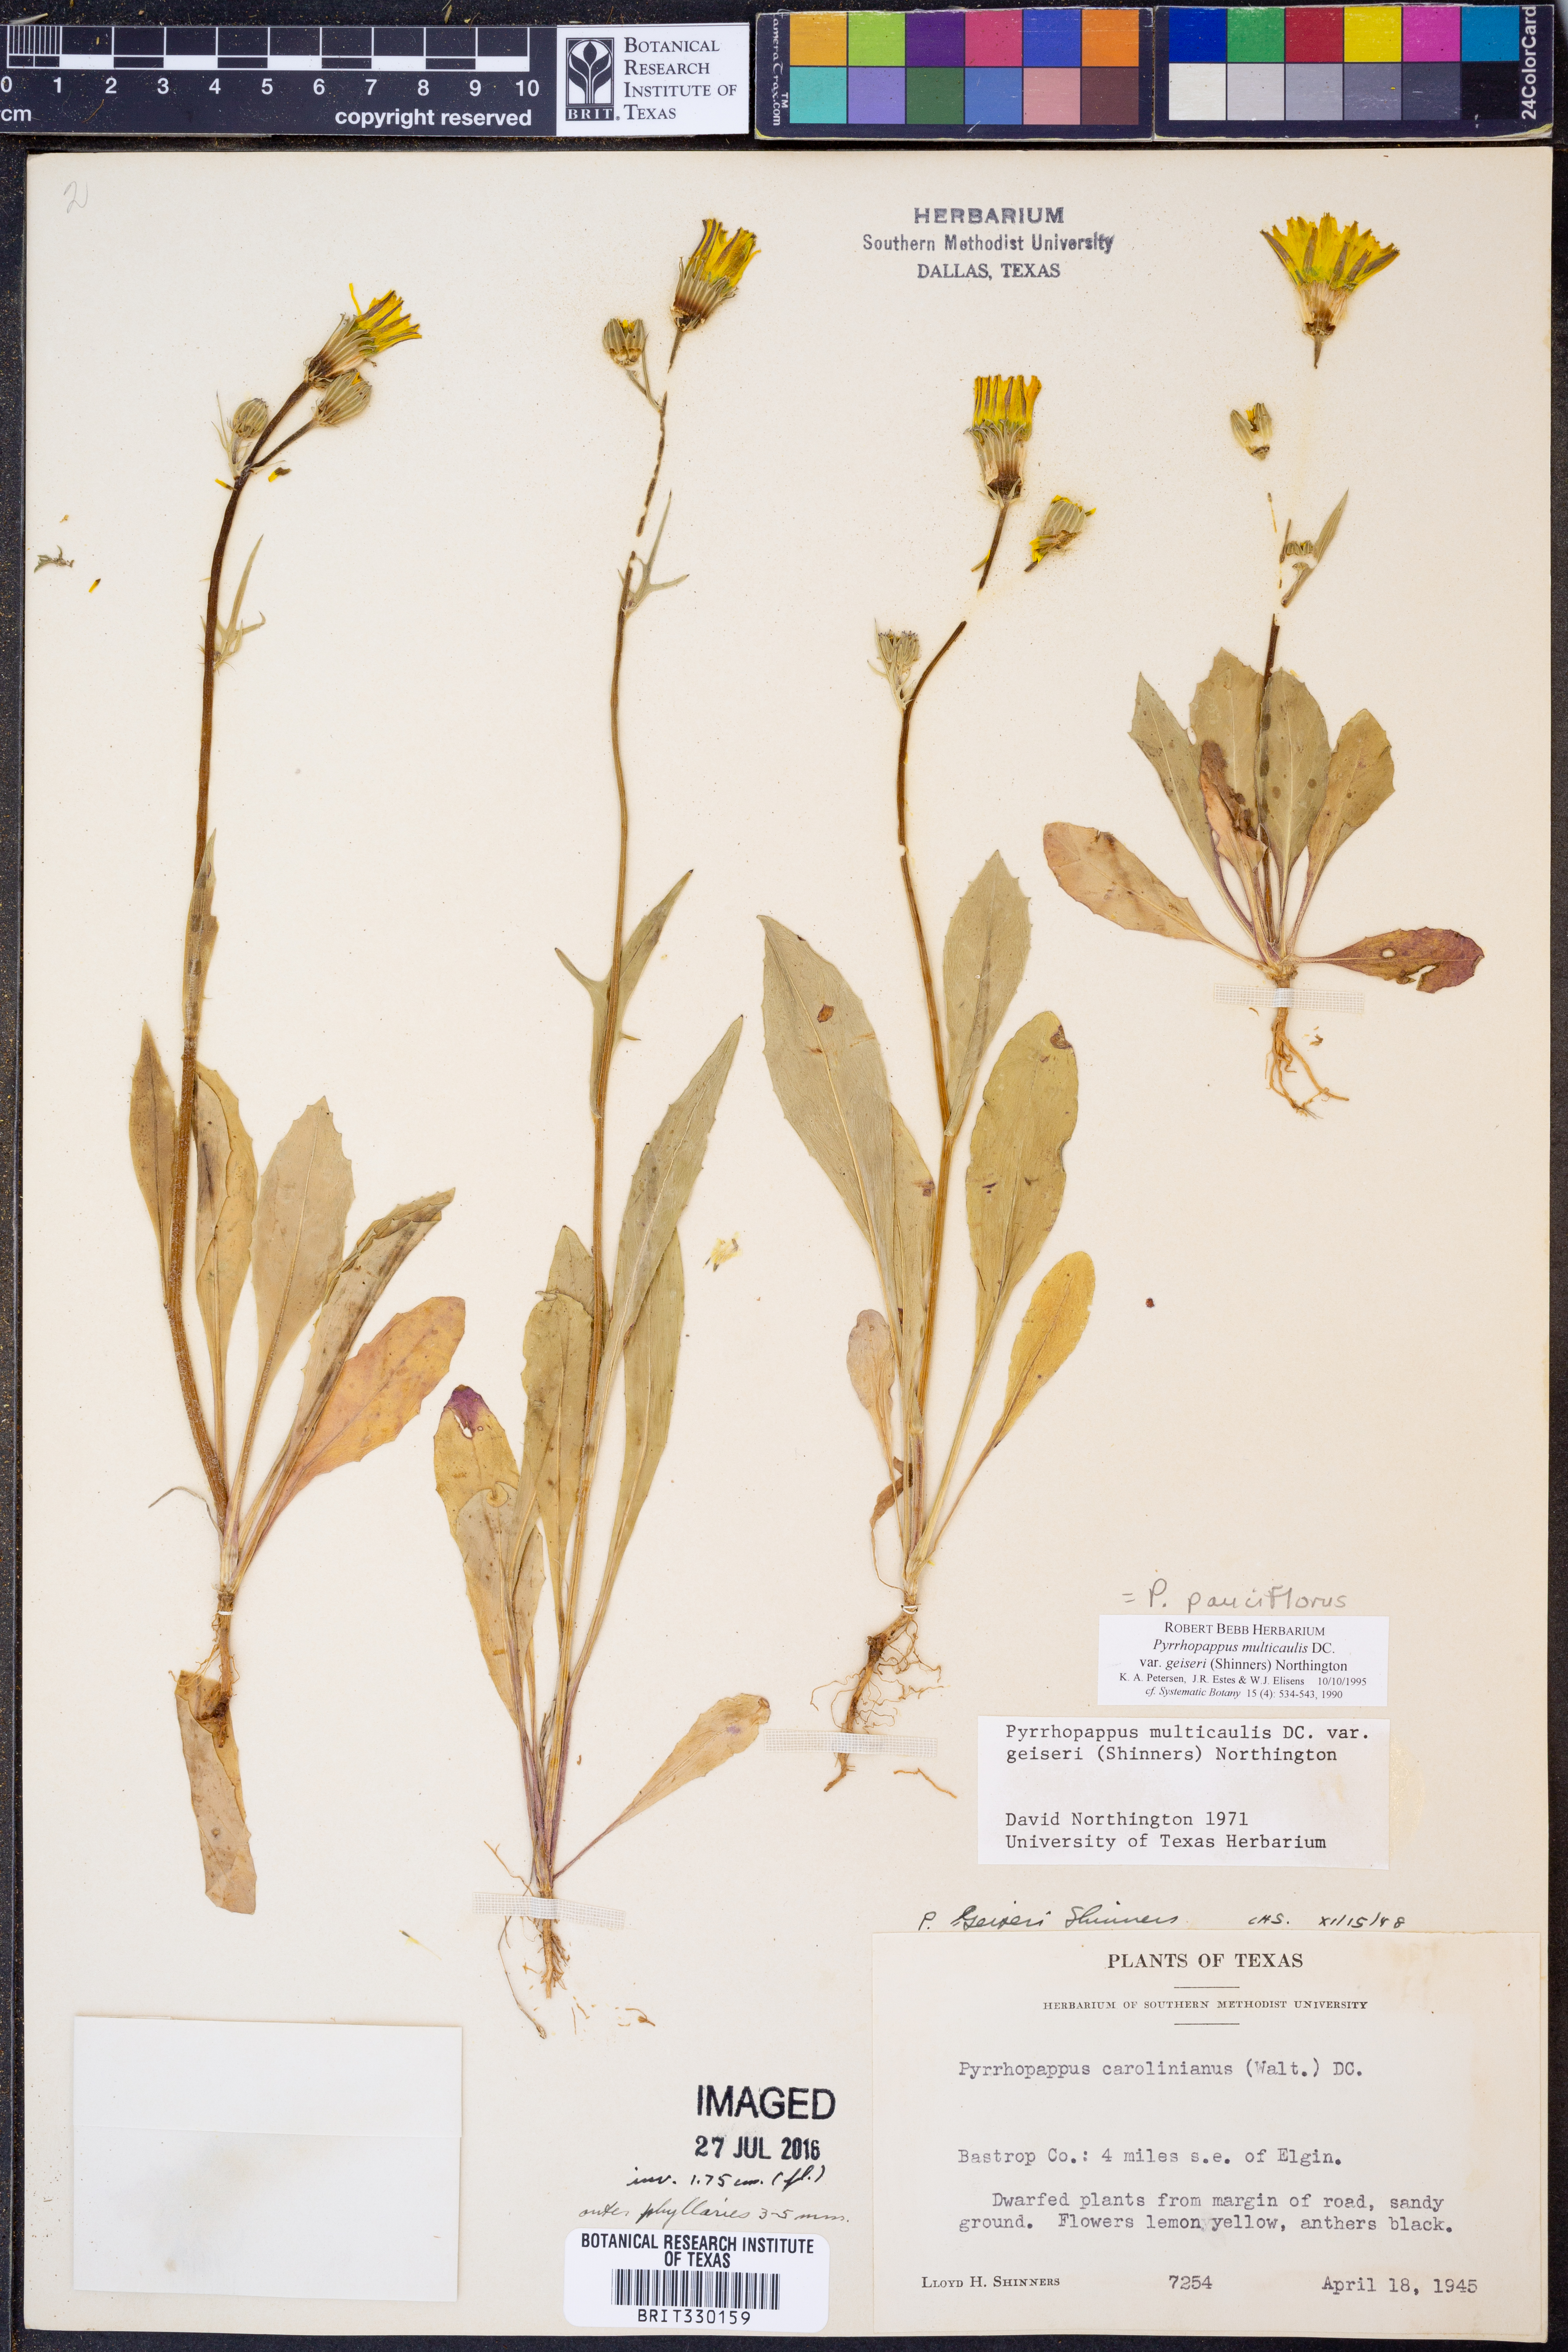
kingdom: Plantae
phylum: Tracheophyta
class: Magnoliopsida
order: Asterales
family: Asteraceae
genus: Pyrrhopappus
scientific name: Pyrrhopappus pauciflorus
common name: Texas false dandelion
